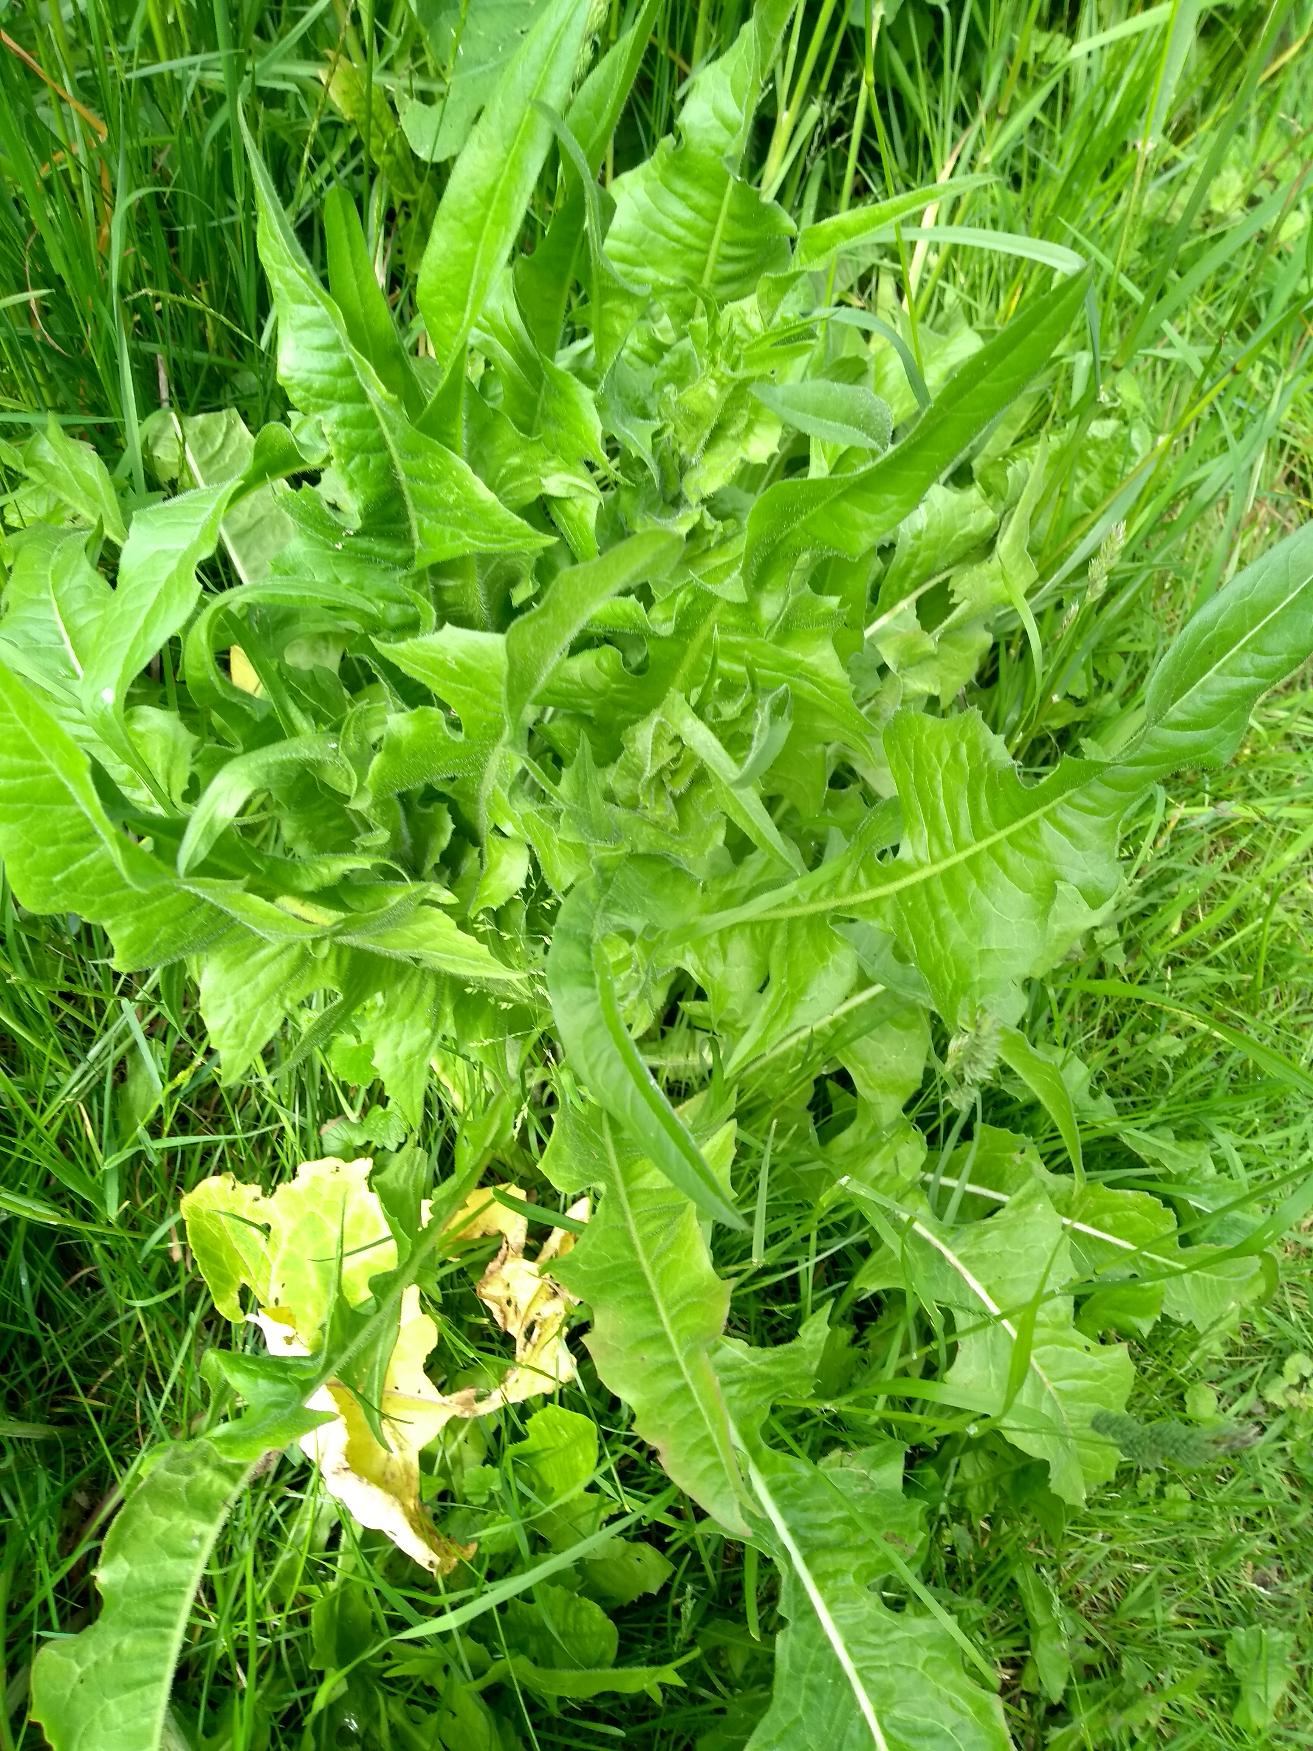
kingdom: Plantae
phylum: Tracheophyta
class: Magnoliopsida
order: Asterales
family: Asteraceae
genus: Cichorium
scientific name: Cichorium intybus
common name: Cikorie
